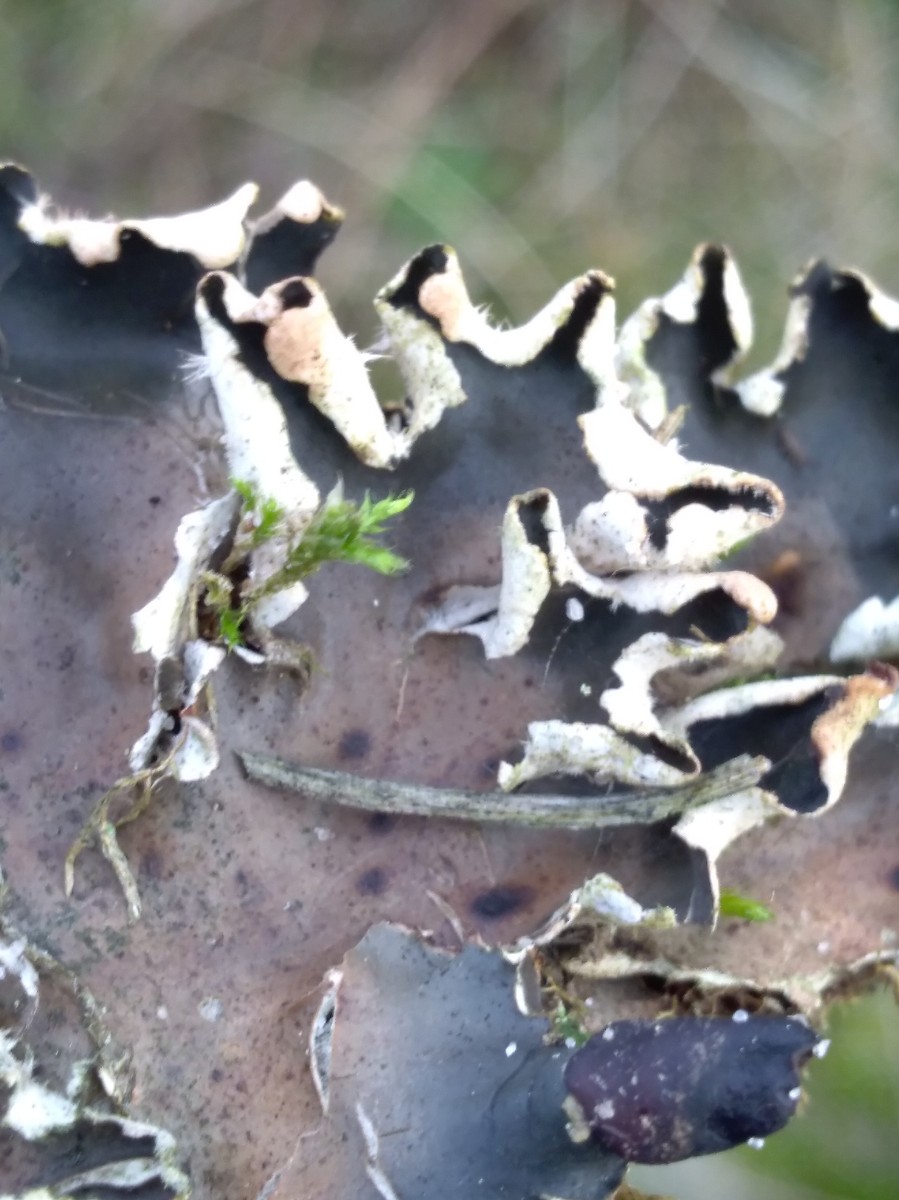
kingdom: Fungi
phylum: Ascomycota
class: Lecanoromycetes
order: Peltigerales
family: Peltigeraceae
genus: Peltigera
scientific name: Peltigera
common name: skjoldlav
